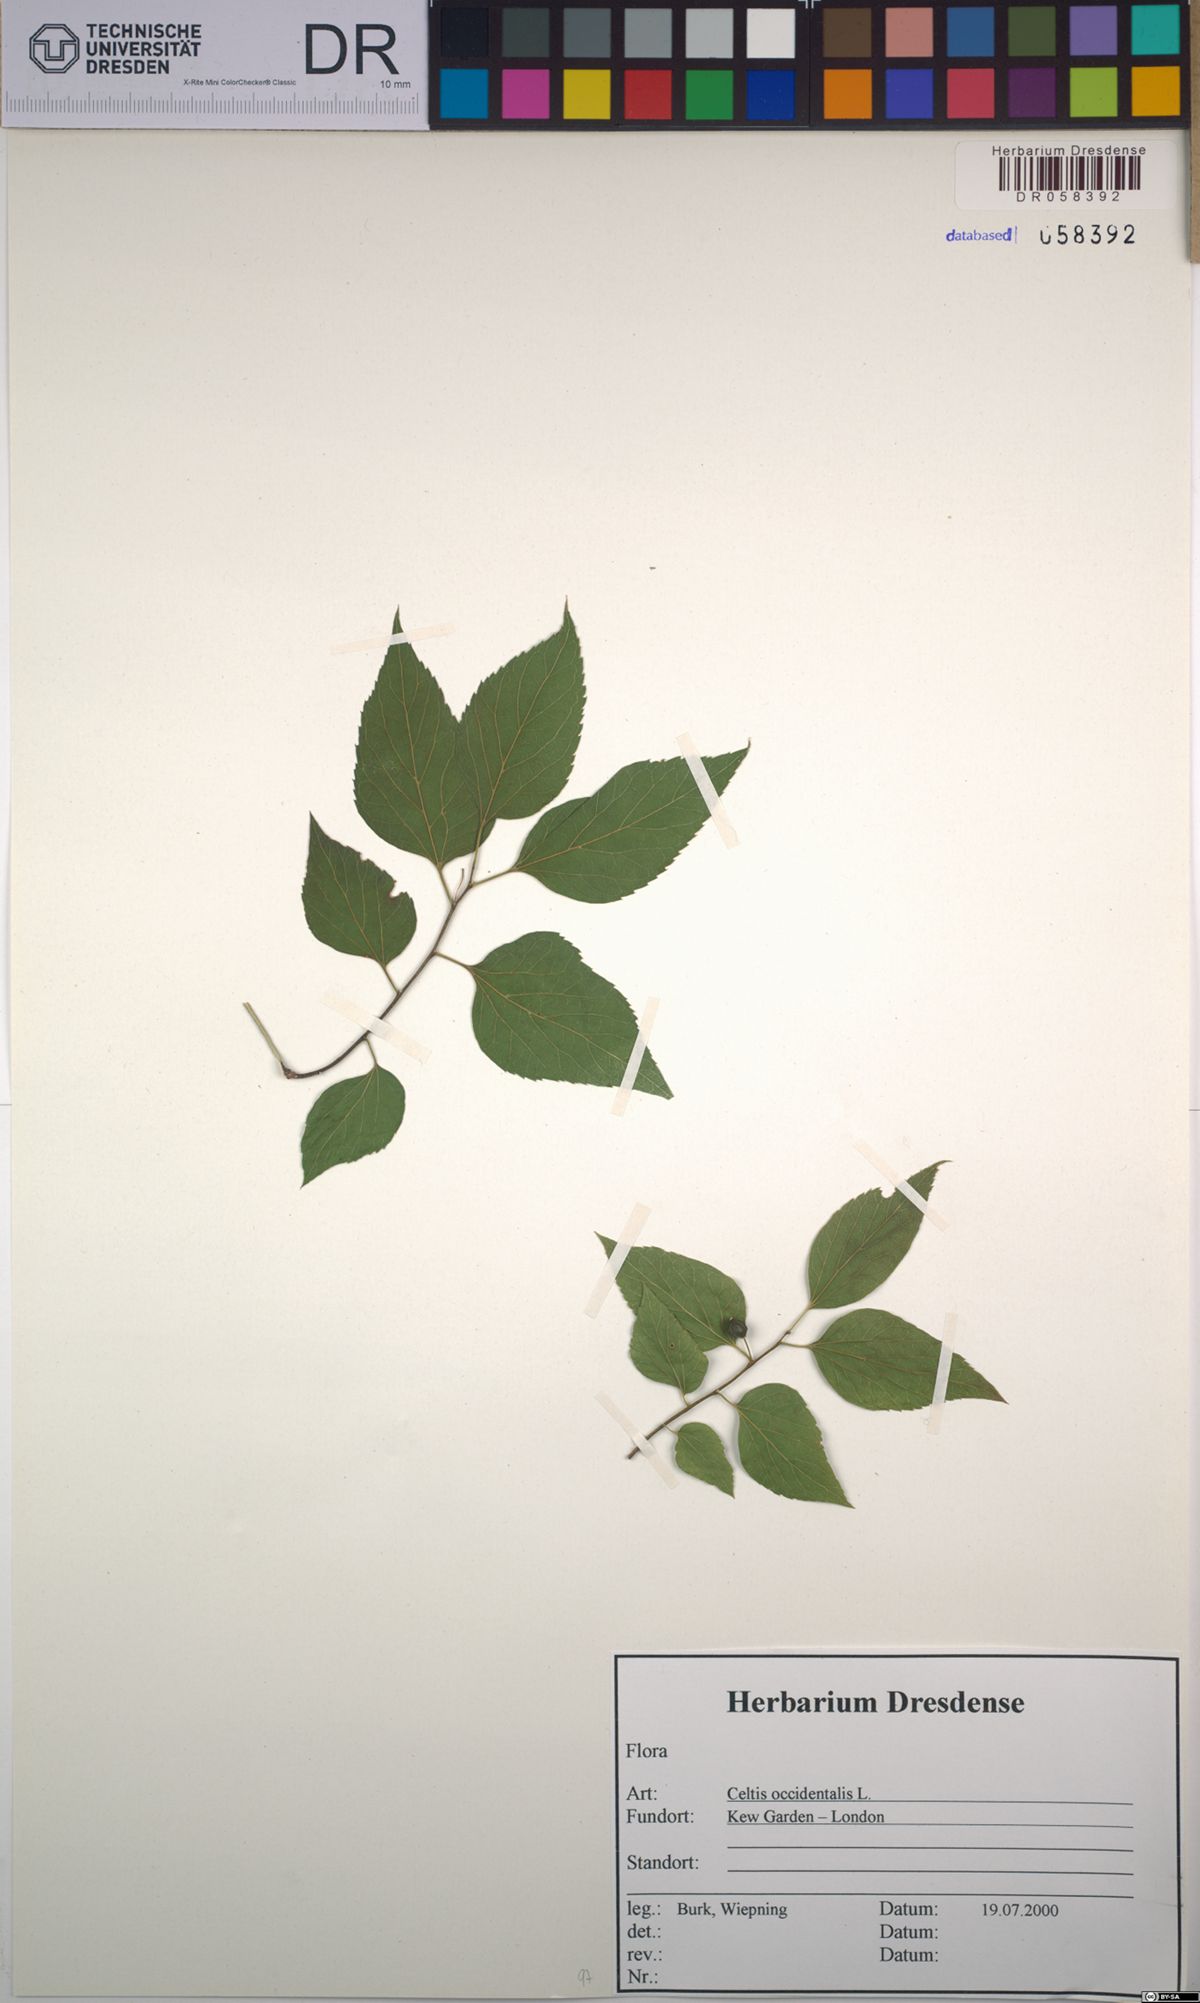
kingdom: Plantae
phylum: Tracheophyta
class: Magnoliopsida
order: Rosales
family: Cannabaceae
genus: Celtis
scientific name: Celtis occidentalis
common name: Common hackberry
